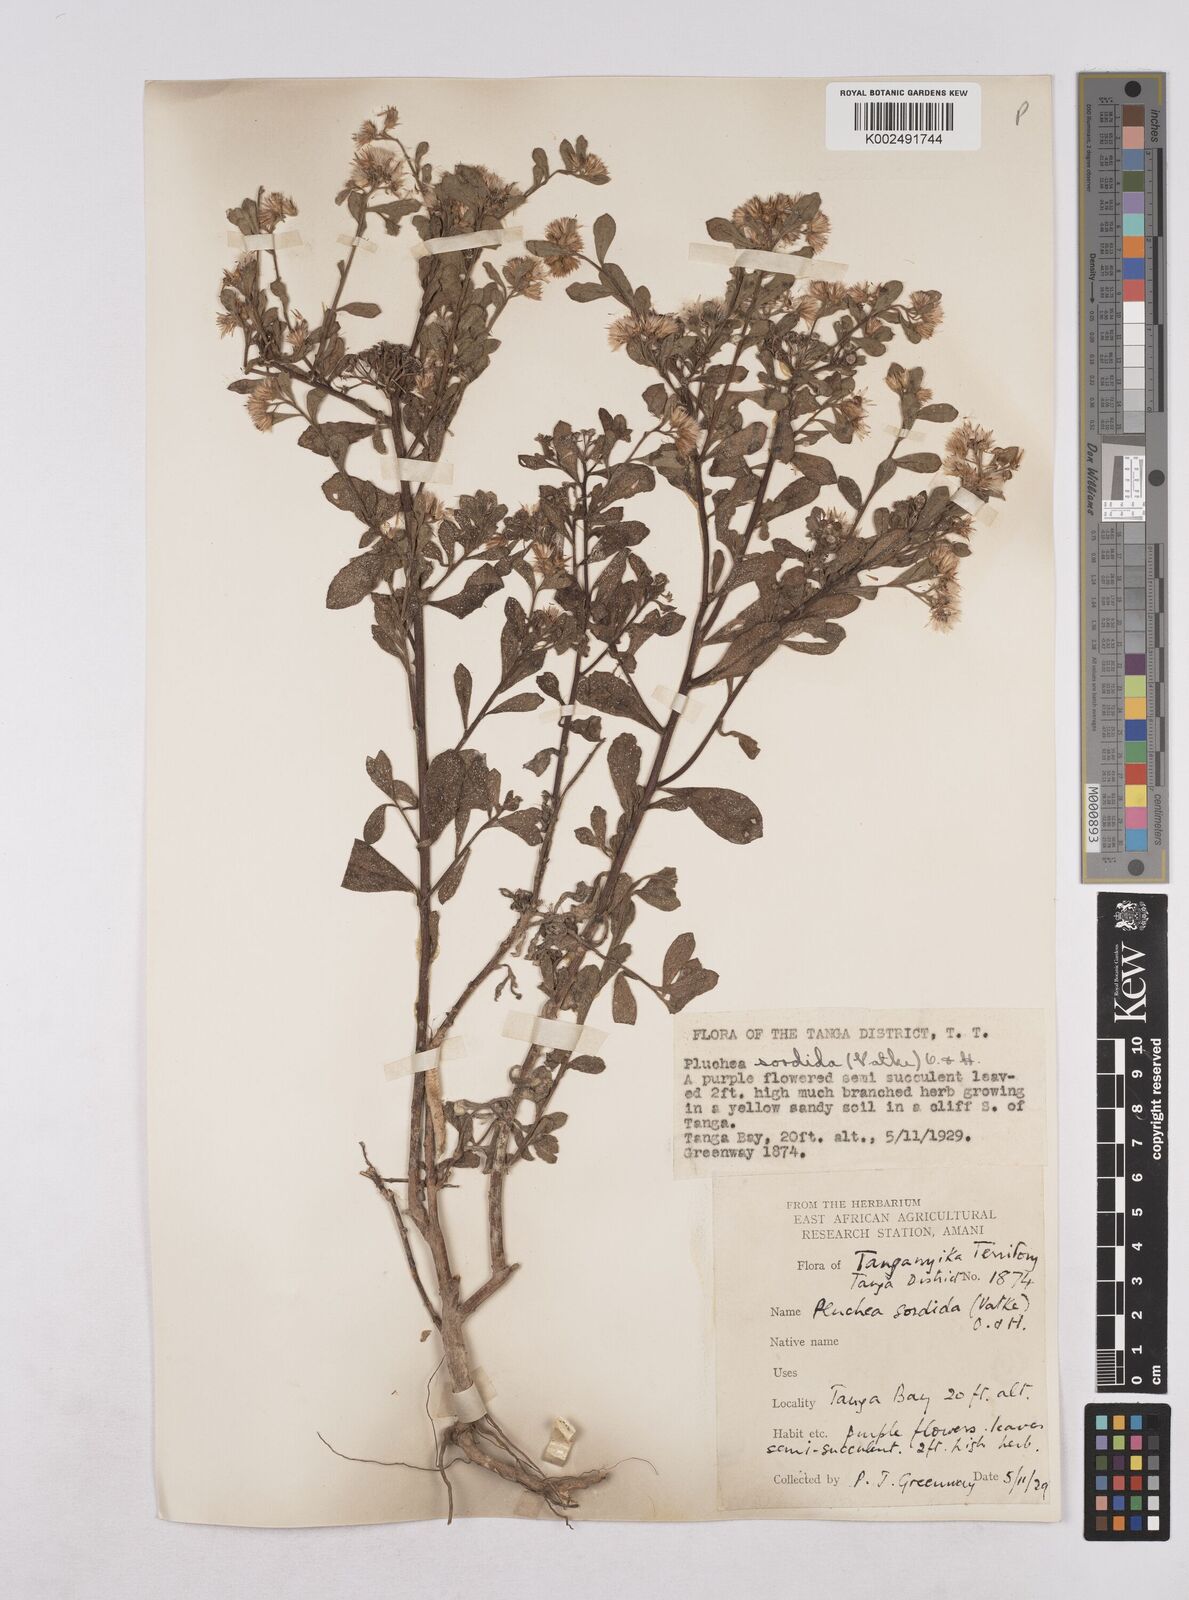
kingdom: Plantae
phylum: Tracheophyta
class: Magnoliopsida
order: Asterales
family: Asteraceae
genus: Pluchea
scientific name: Pluchea sordida
